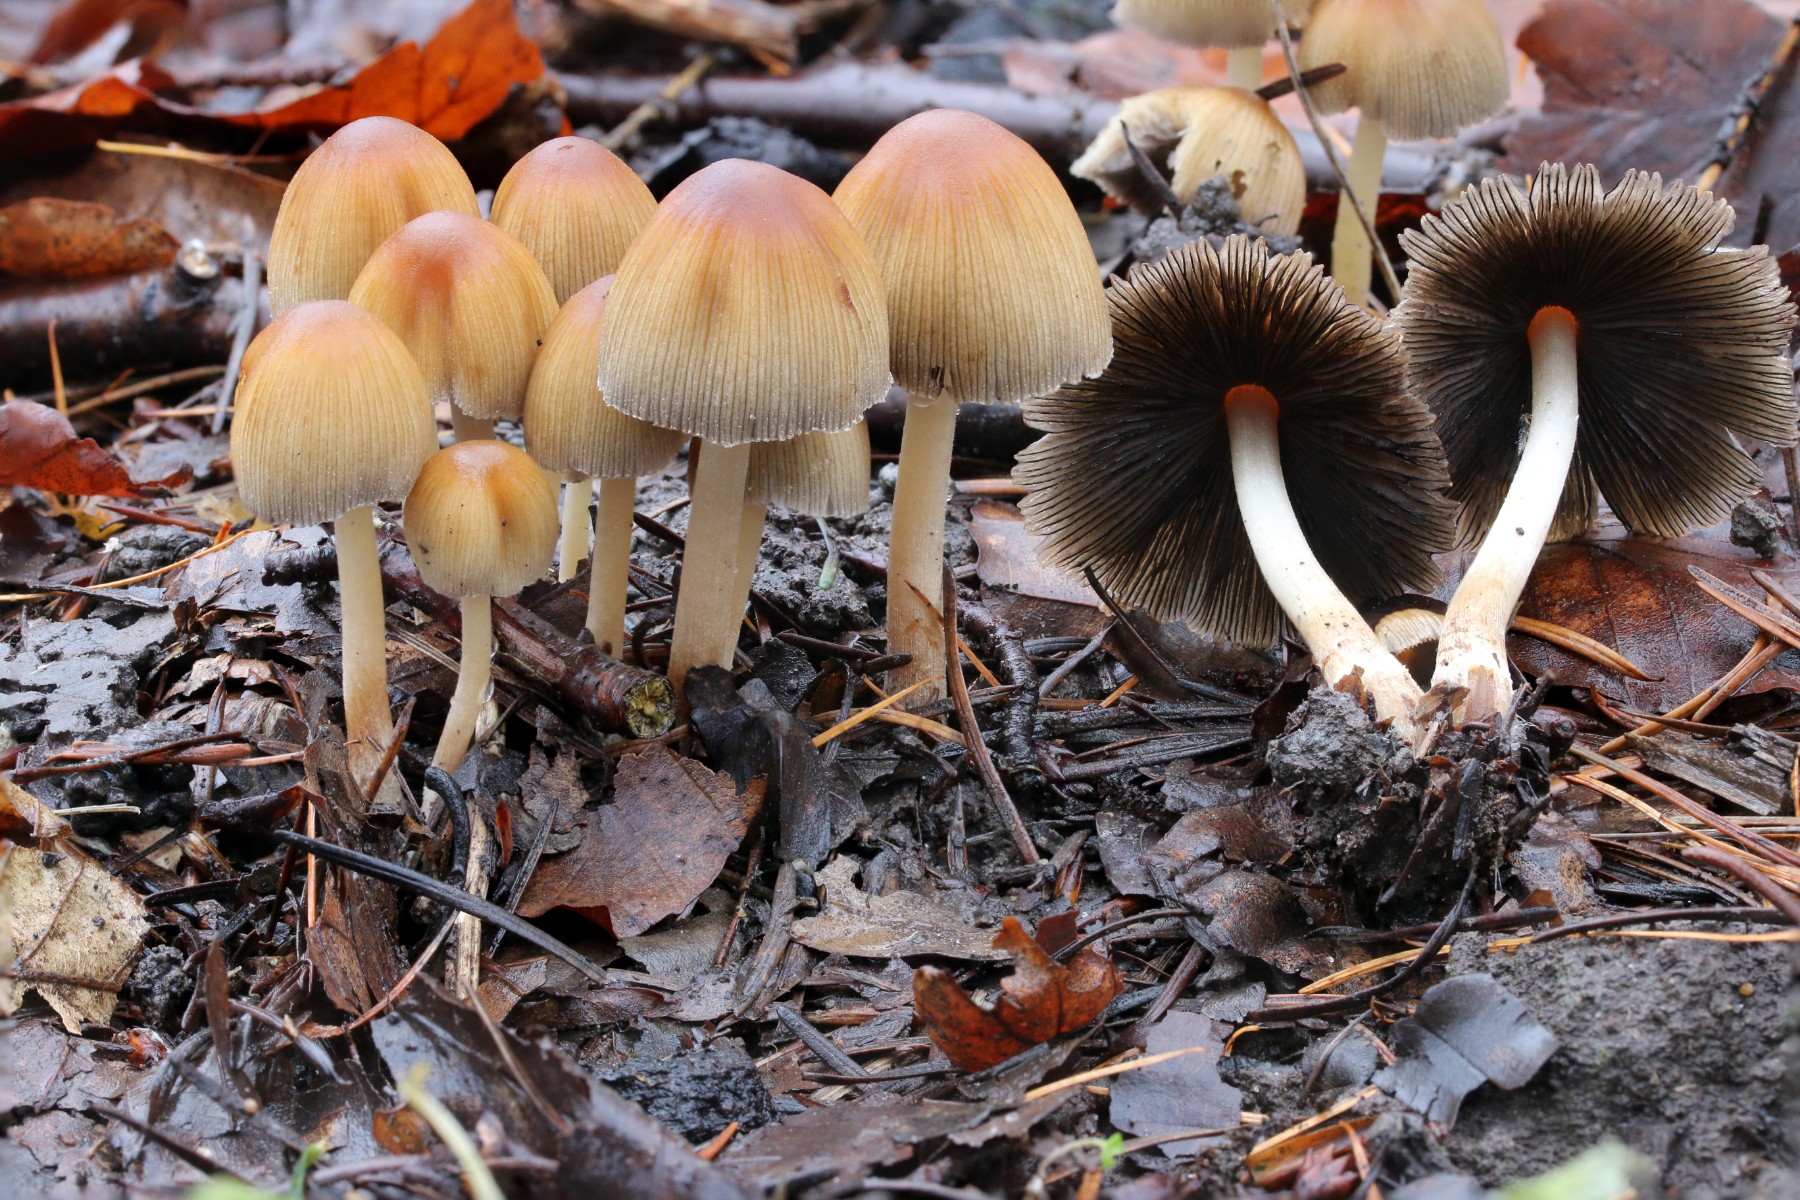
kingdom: Fungi
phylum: Basidiomycota
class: Agaricomycetes
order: Agaricales
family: Psathyrellaceae
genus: Coprinellus
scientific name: Coprinellus micaceus
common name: glimmer-blækhat
